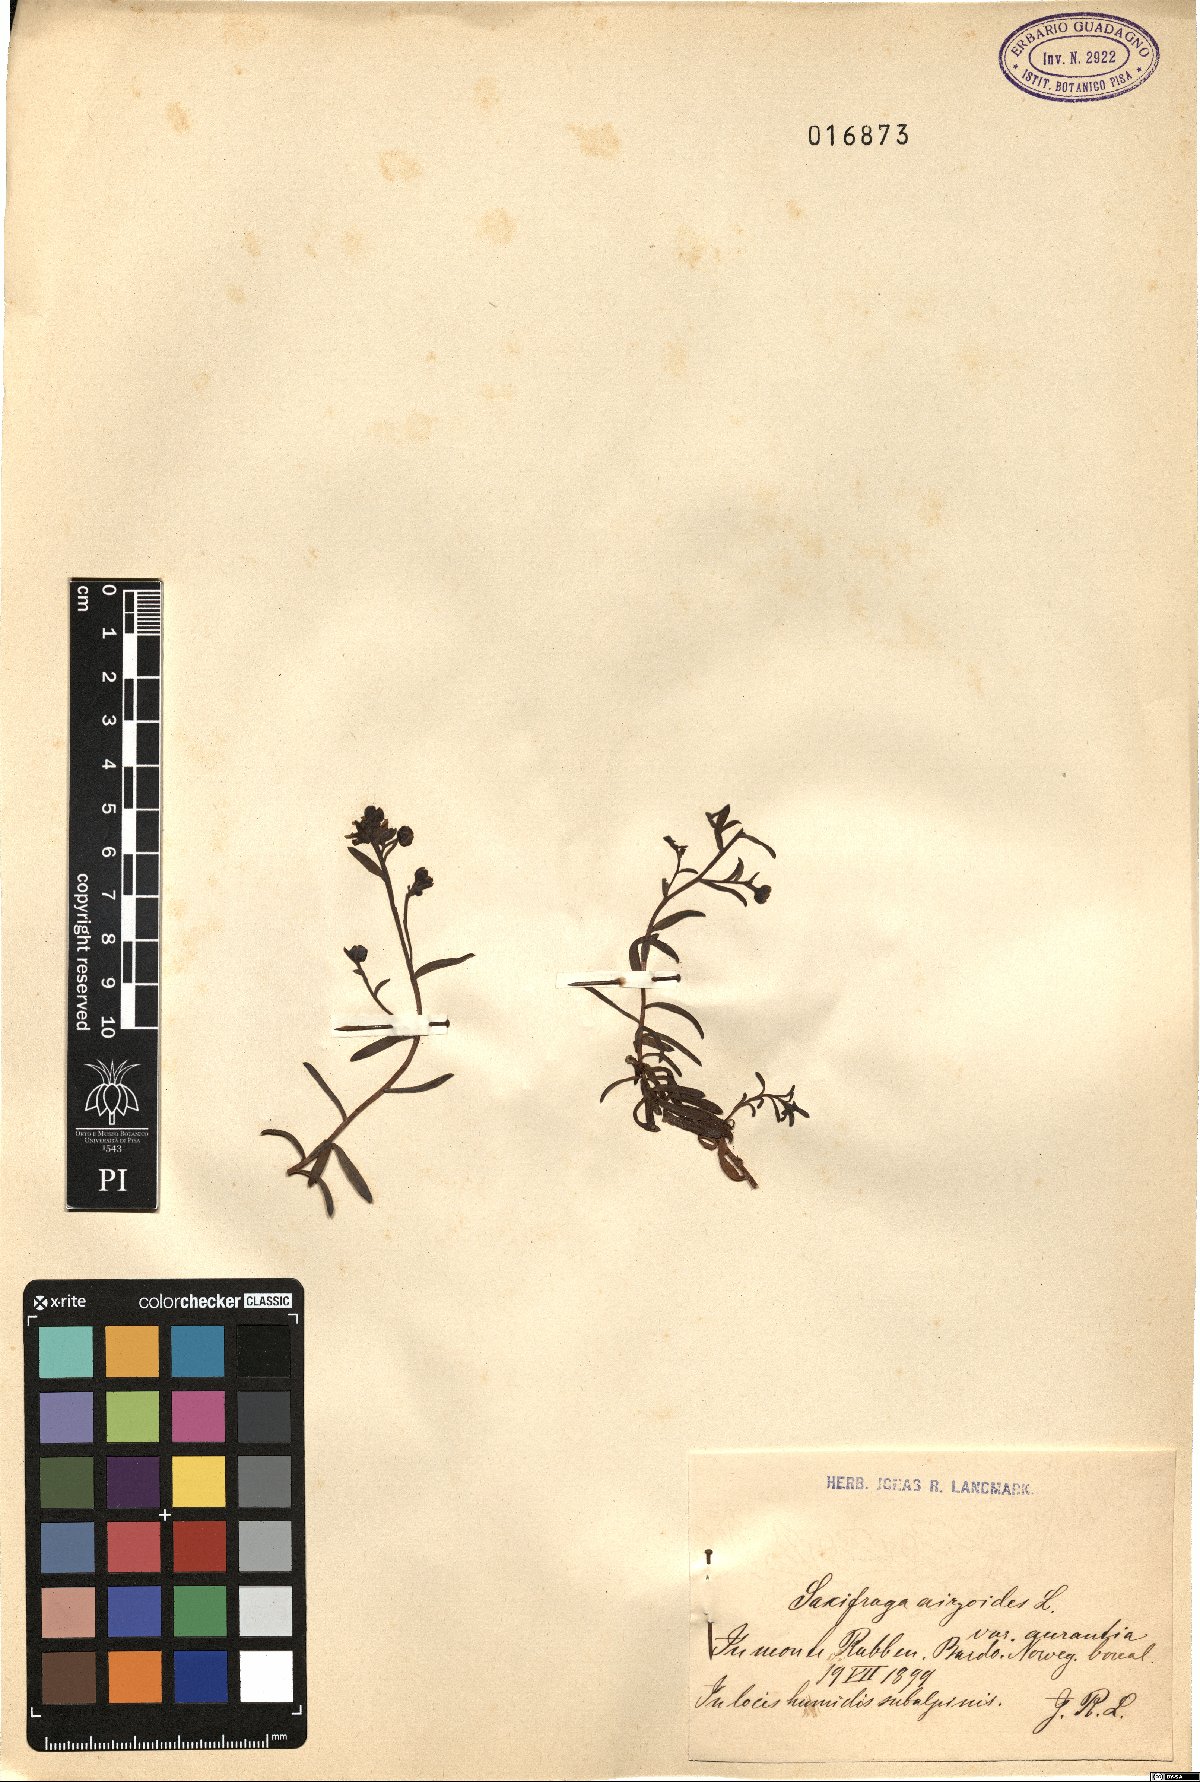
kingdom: Plantae
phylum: Tracheophyta
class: Magnoliopsida
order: Saxifragales
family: Saxifragaceae
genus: Saxifraga
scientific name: Saxifraga aizoides
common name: Yellow mountain saxifrage
